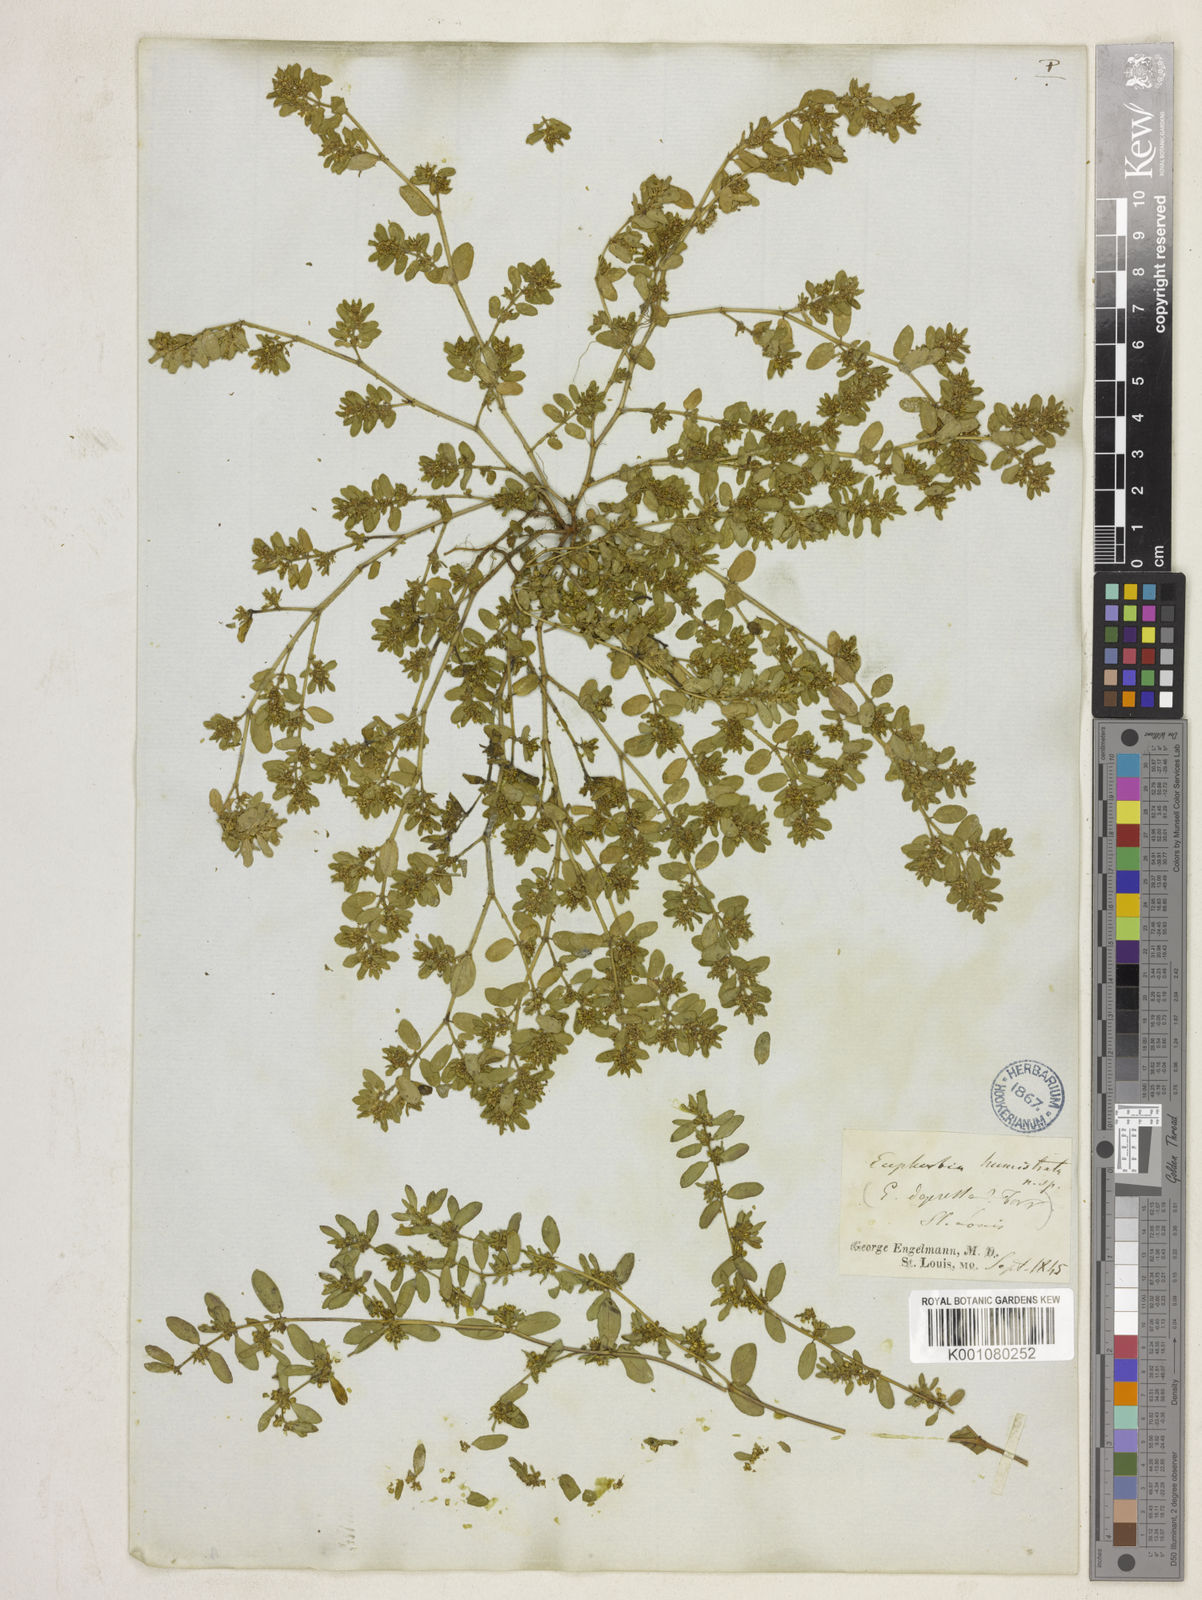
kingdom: Plantae
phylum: Tracheophyta
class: Magnoliopsida
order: Malpighiales
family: Euphorbiaceae
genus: Euphorbia
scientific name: Euphorbia
